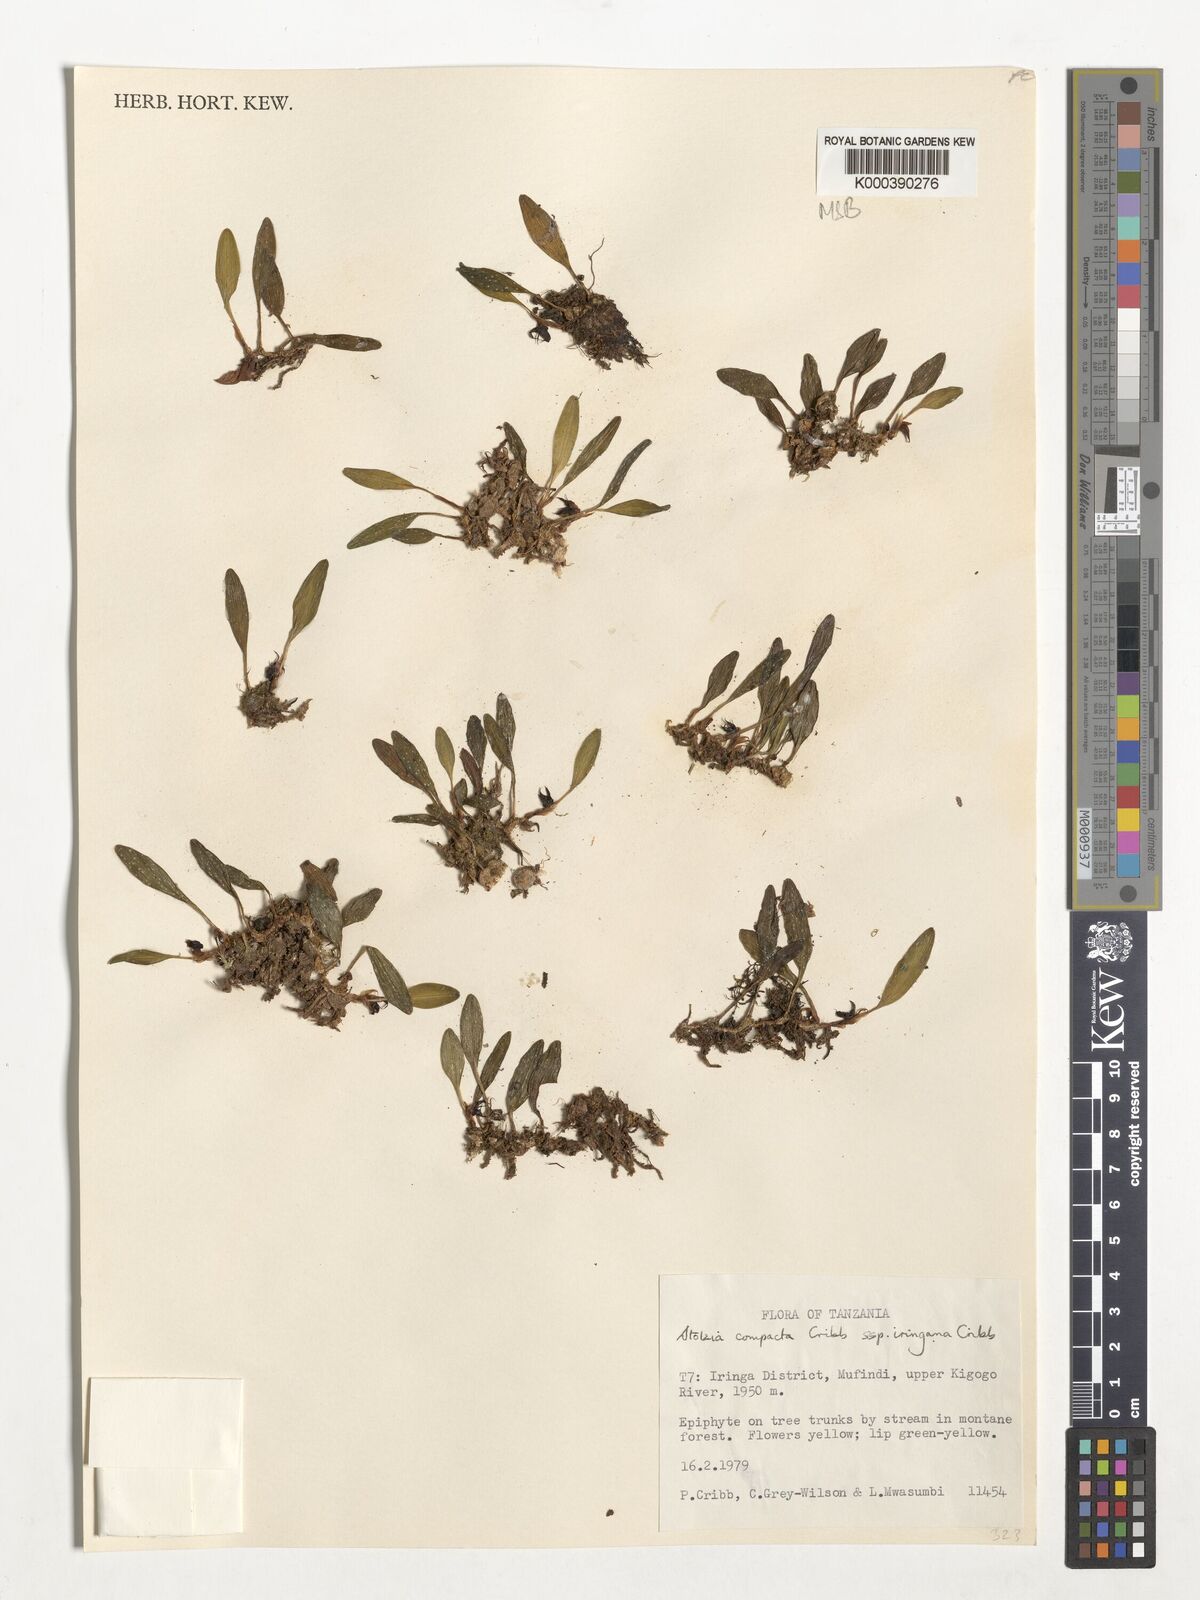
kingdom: Plantae
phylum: Tracheophyta
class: Liliopsida
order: Asparagales
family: Orchidaceae
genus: Porpax
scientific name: Porpax compacta
